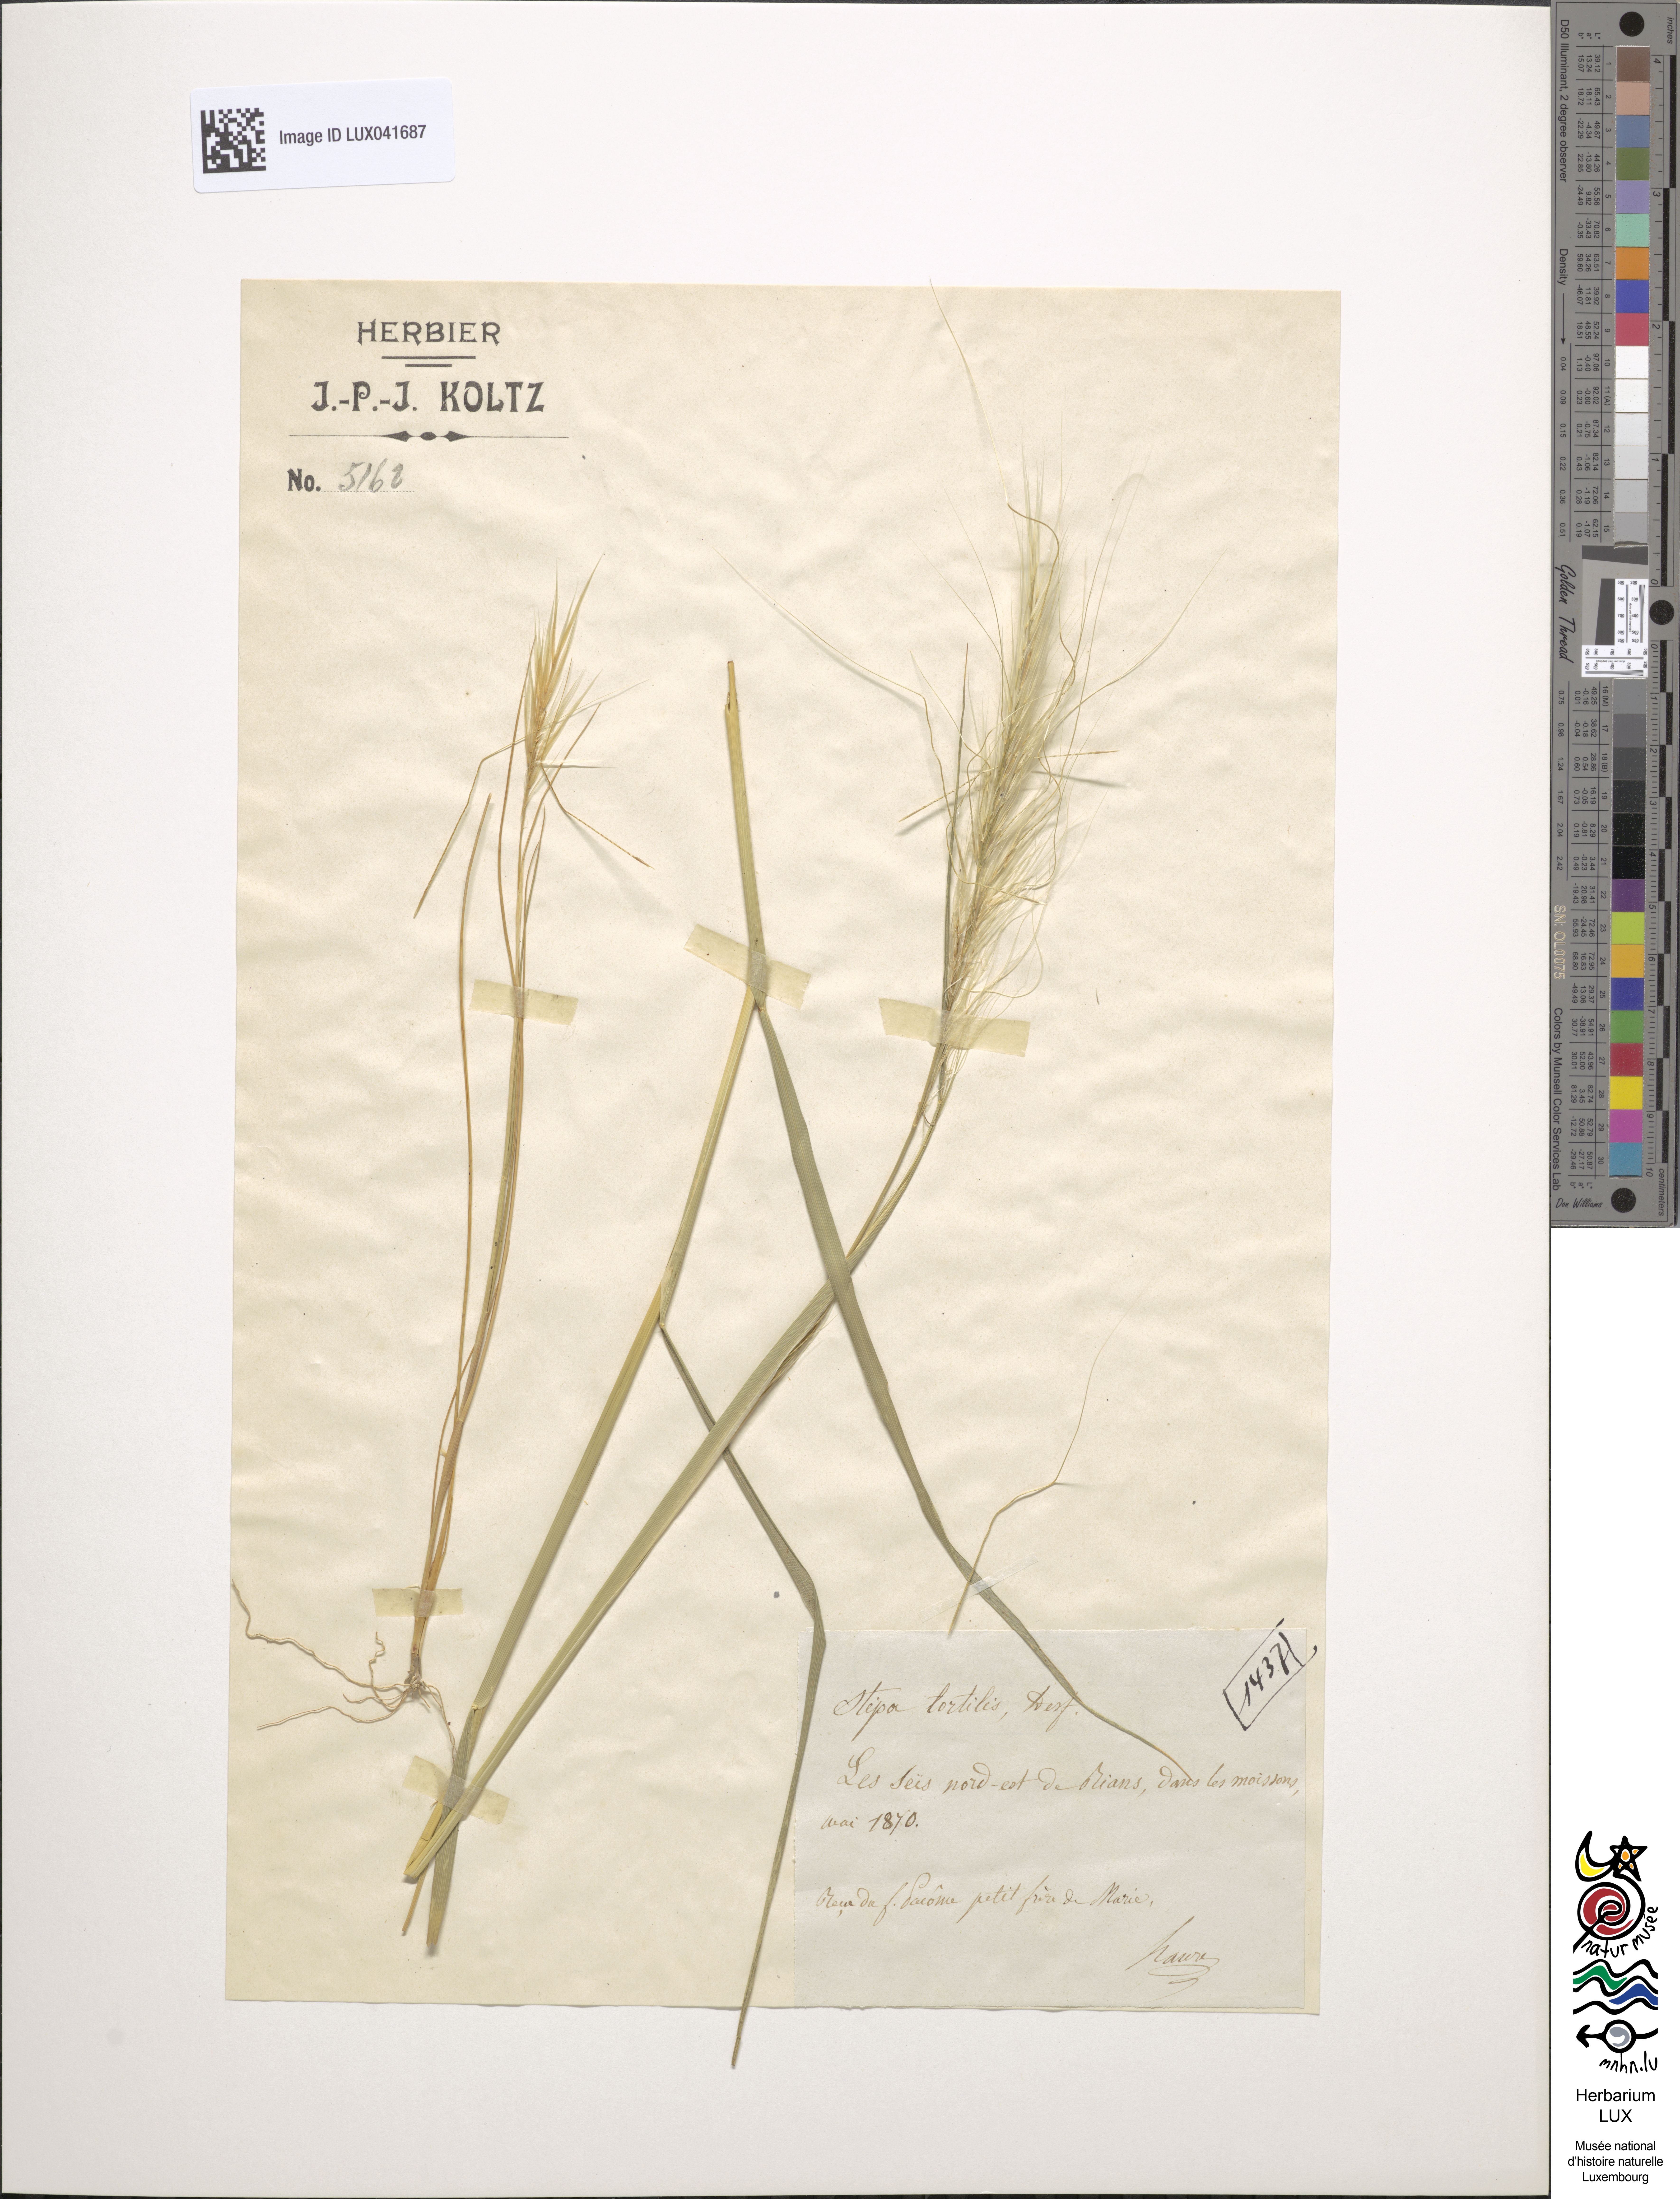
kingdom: Plantae
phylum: Tracheophyta
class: Liliopsida
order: Poales
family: Poaceae
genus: Stipellula
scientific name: Stipellula capensis
